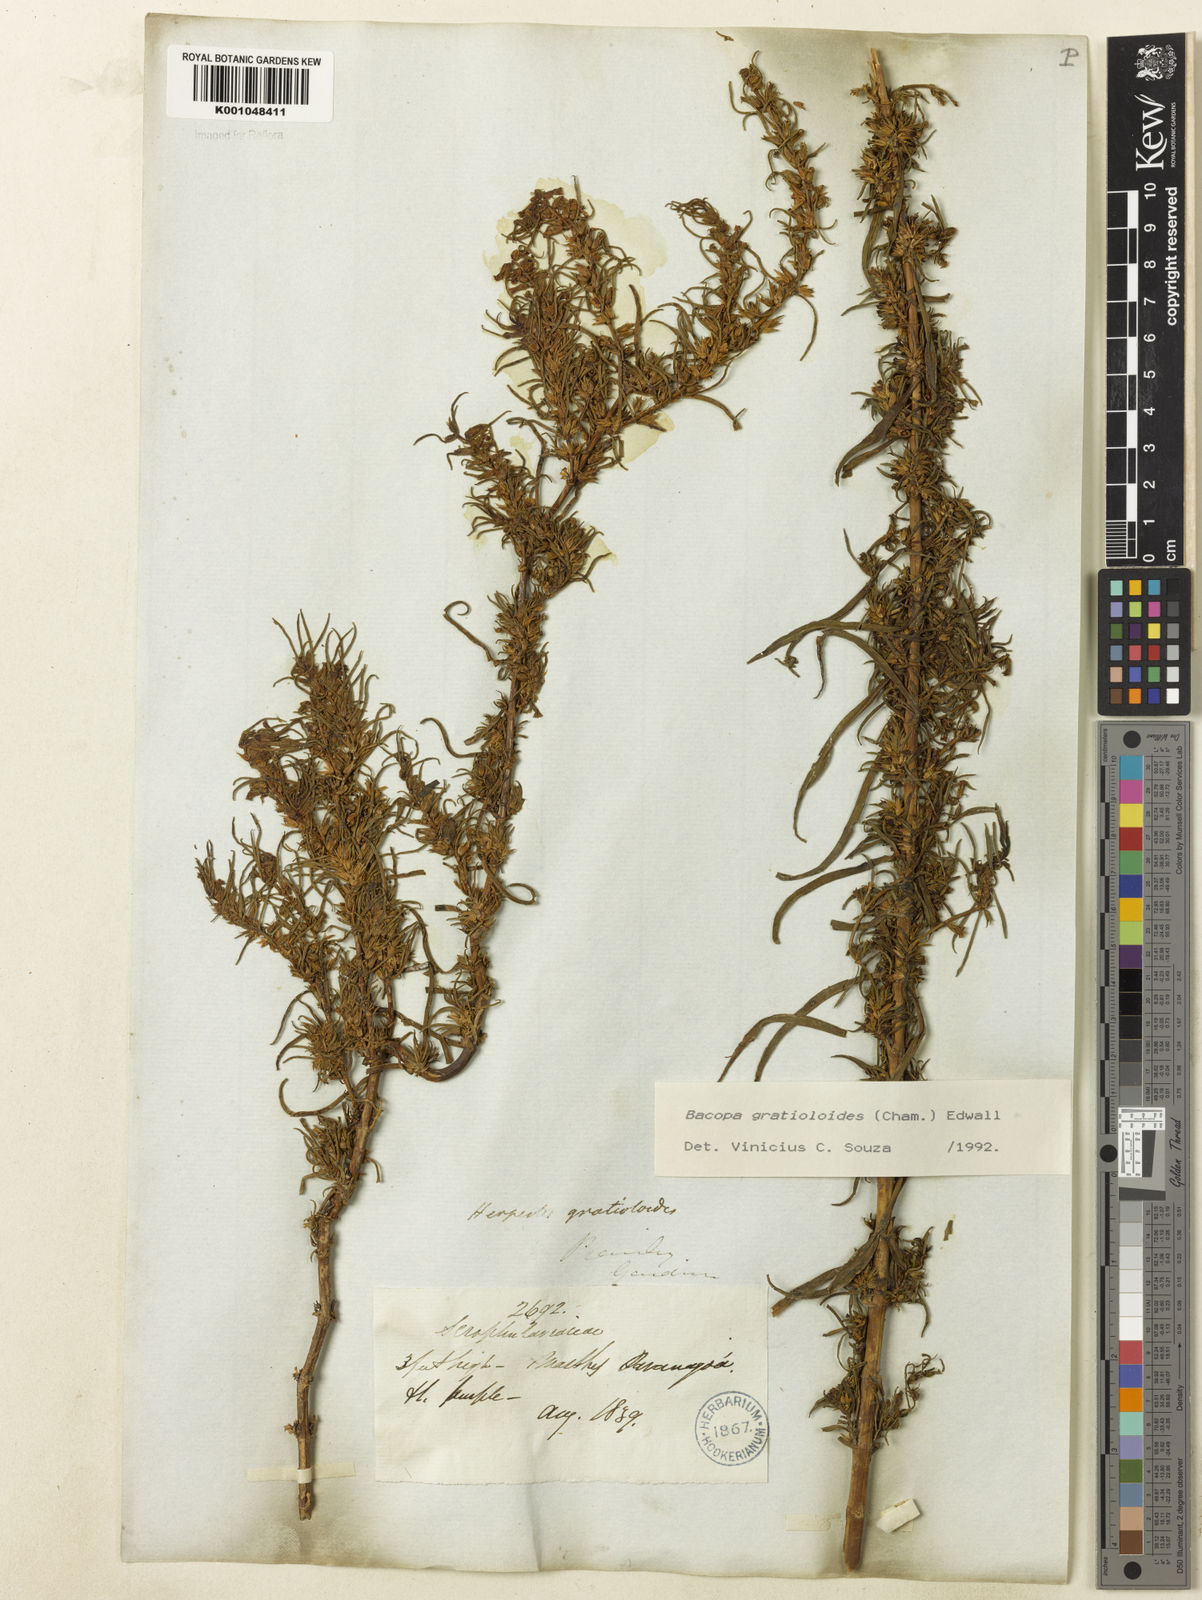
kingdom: Plantae
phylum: Tracheophyta
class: Magnoliopsida
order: Lamiales
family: Plantaginaceae
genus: Bacopa
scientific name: Bacopa
